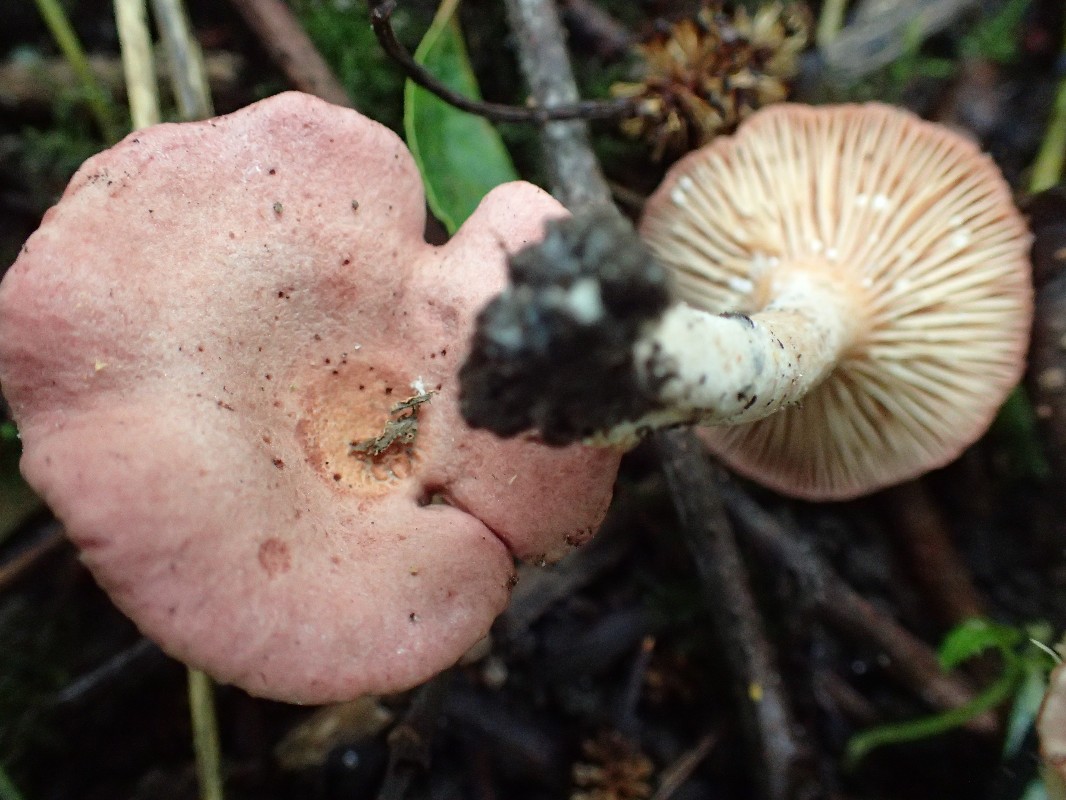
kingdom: Fungi
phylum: Basidiomycota
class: Agaricomycetes
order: Russulales
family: Russulaceae
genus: Lactarius
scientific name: Lactarius lilacinus
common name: lilla mælkehat
